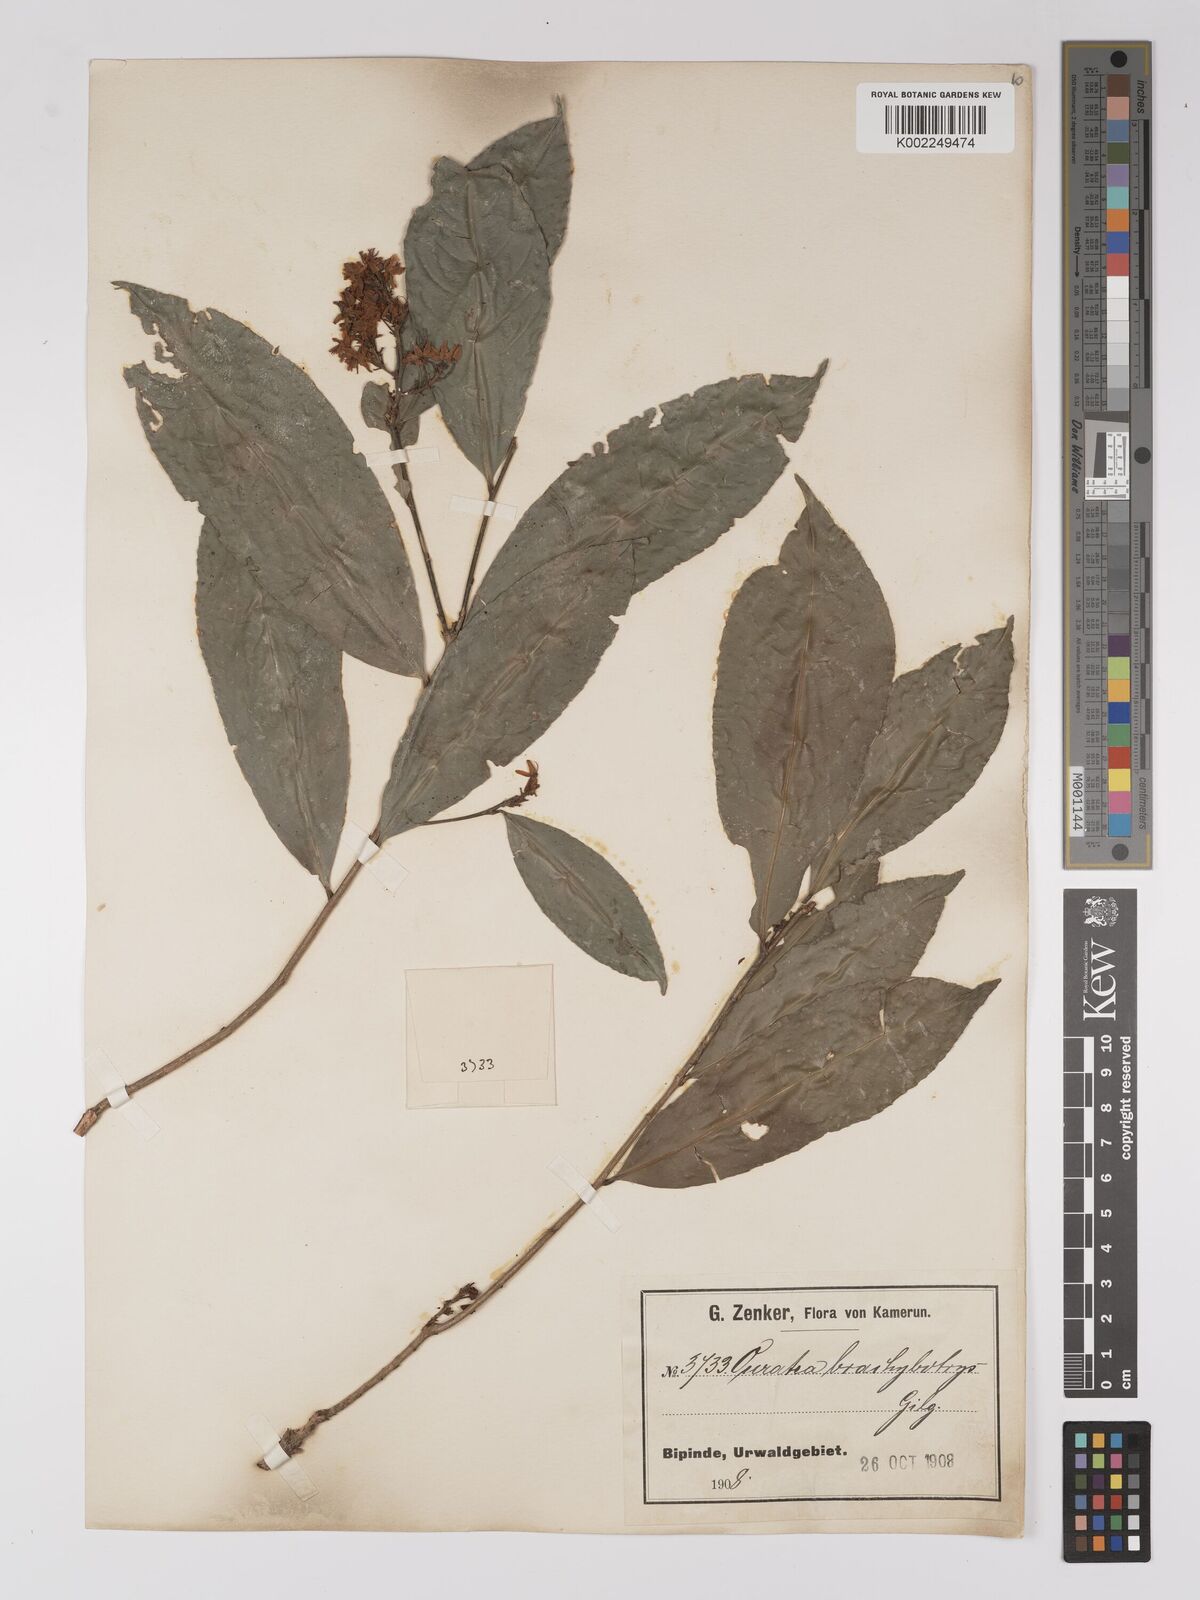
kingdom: Plantae
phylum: Tracheophyta
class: Magnoliopsida
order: Malpighiales
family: Ochnaceae
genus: Campylospermum
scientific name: Campylospermum glaucum
